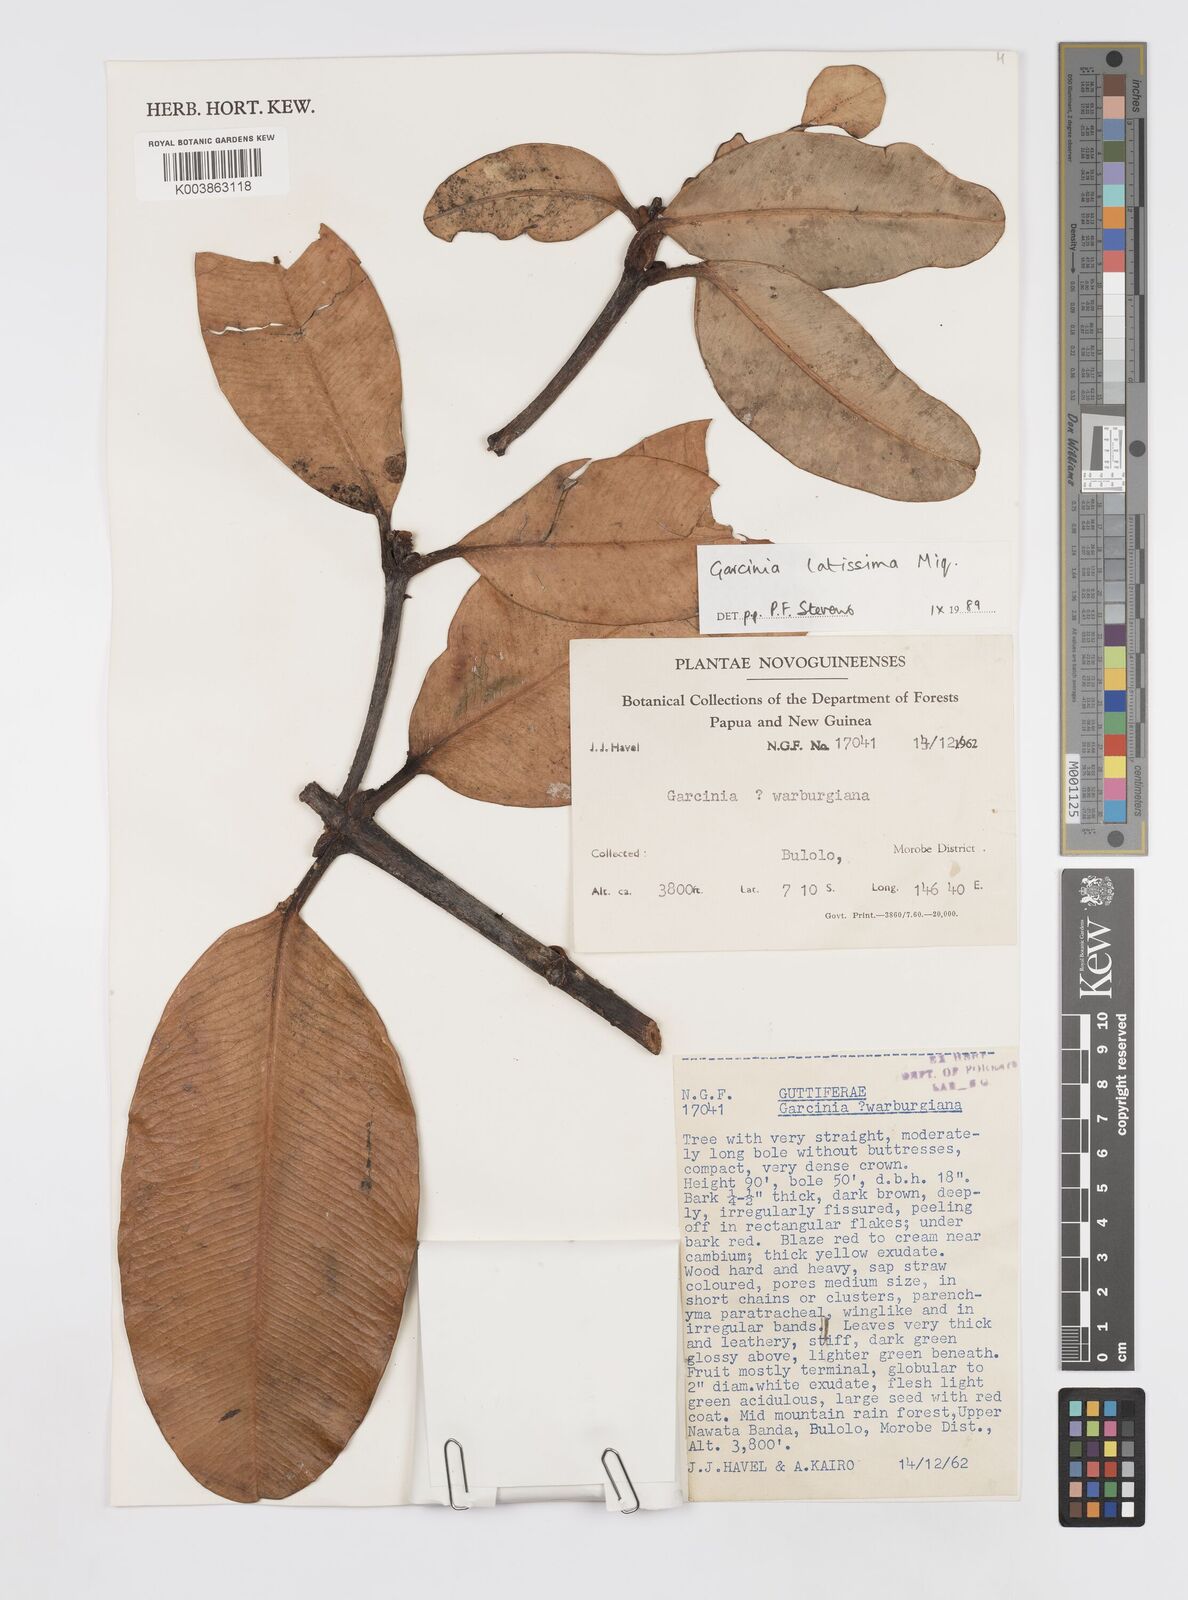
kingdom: Plantae
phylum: Tracheophyta
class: Magnoliopsida
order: Malpighiales
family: Clusiaceae
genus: Garcinia
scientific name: Garcinia latissima
